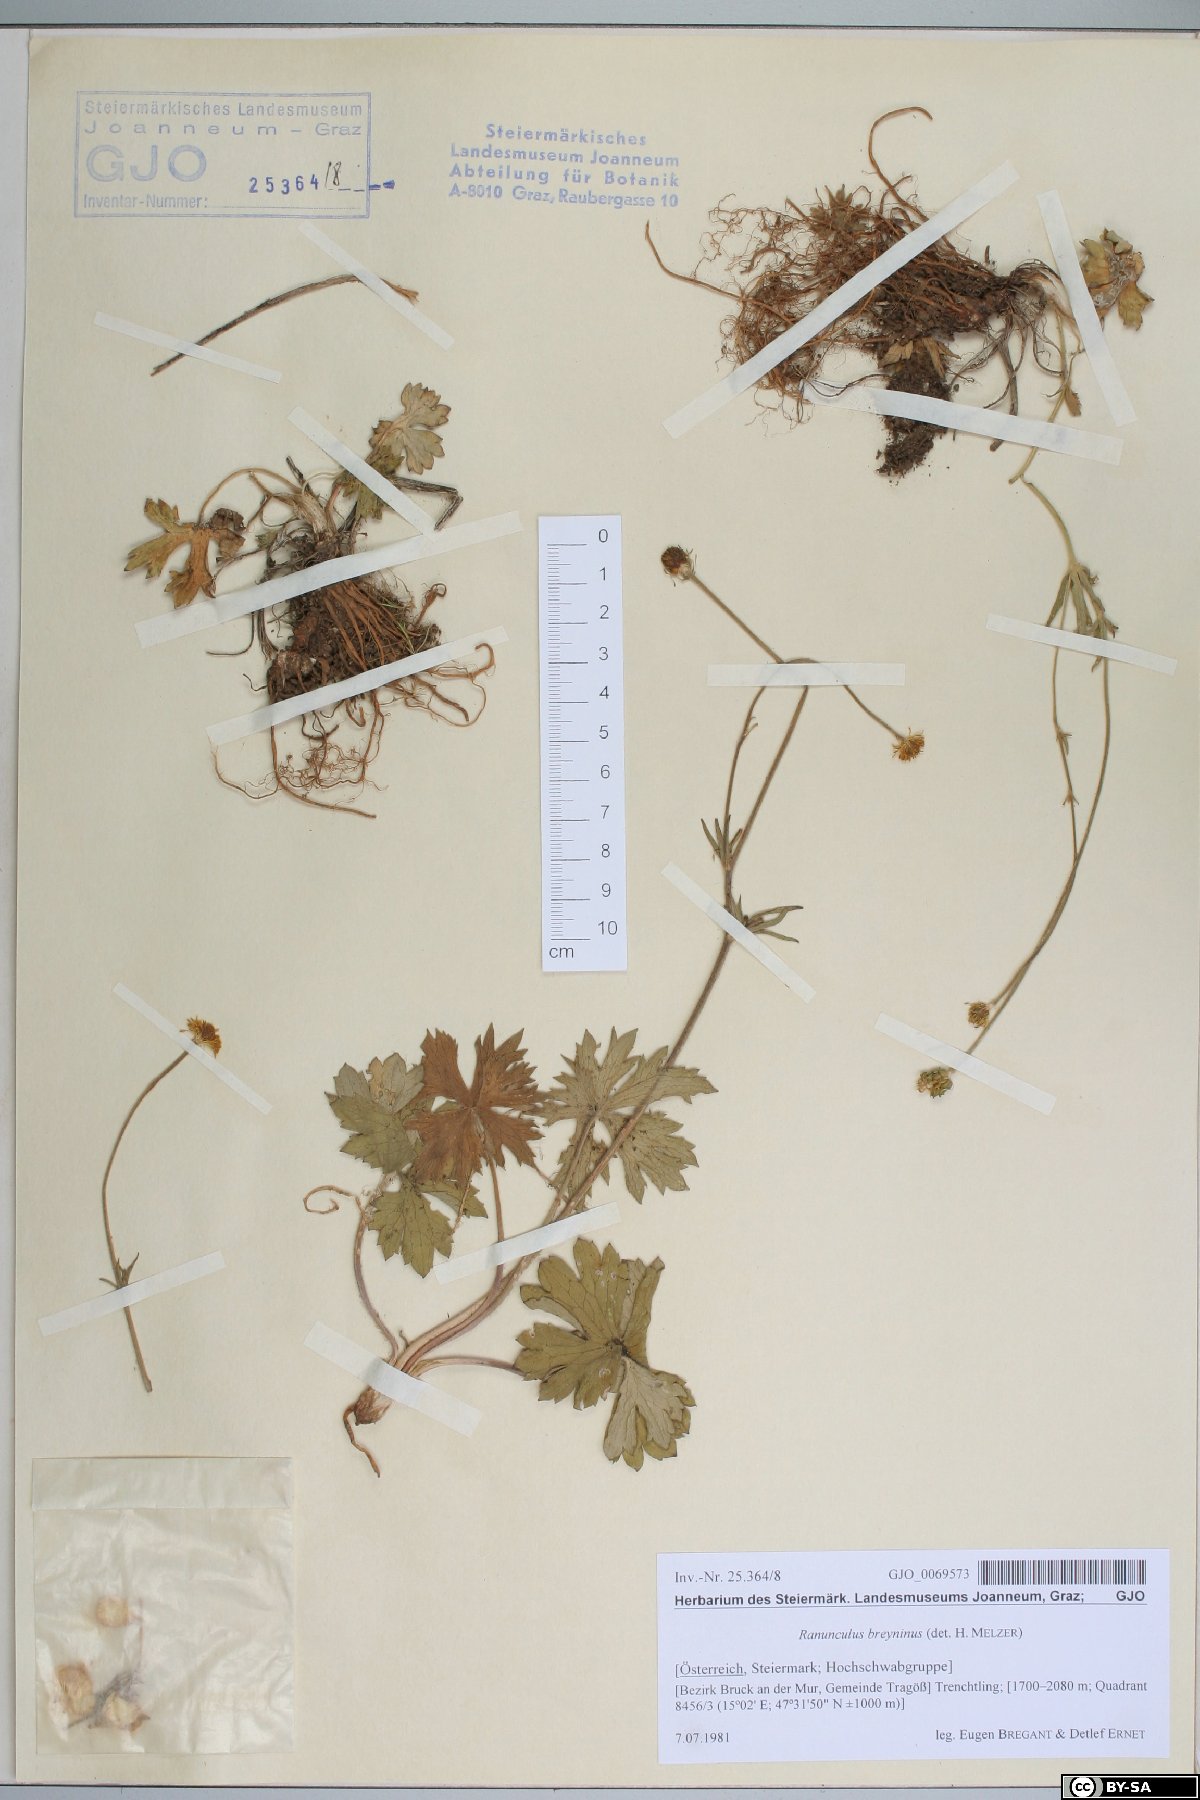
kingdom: Plantae
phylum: Tracheophyta
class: Magnoliopsida
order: Ranunculales
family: Ranunculaceae
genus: Ranunculus
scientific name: Ranunculus breyninus
